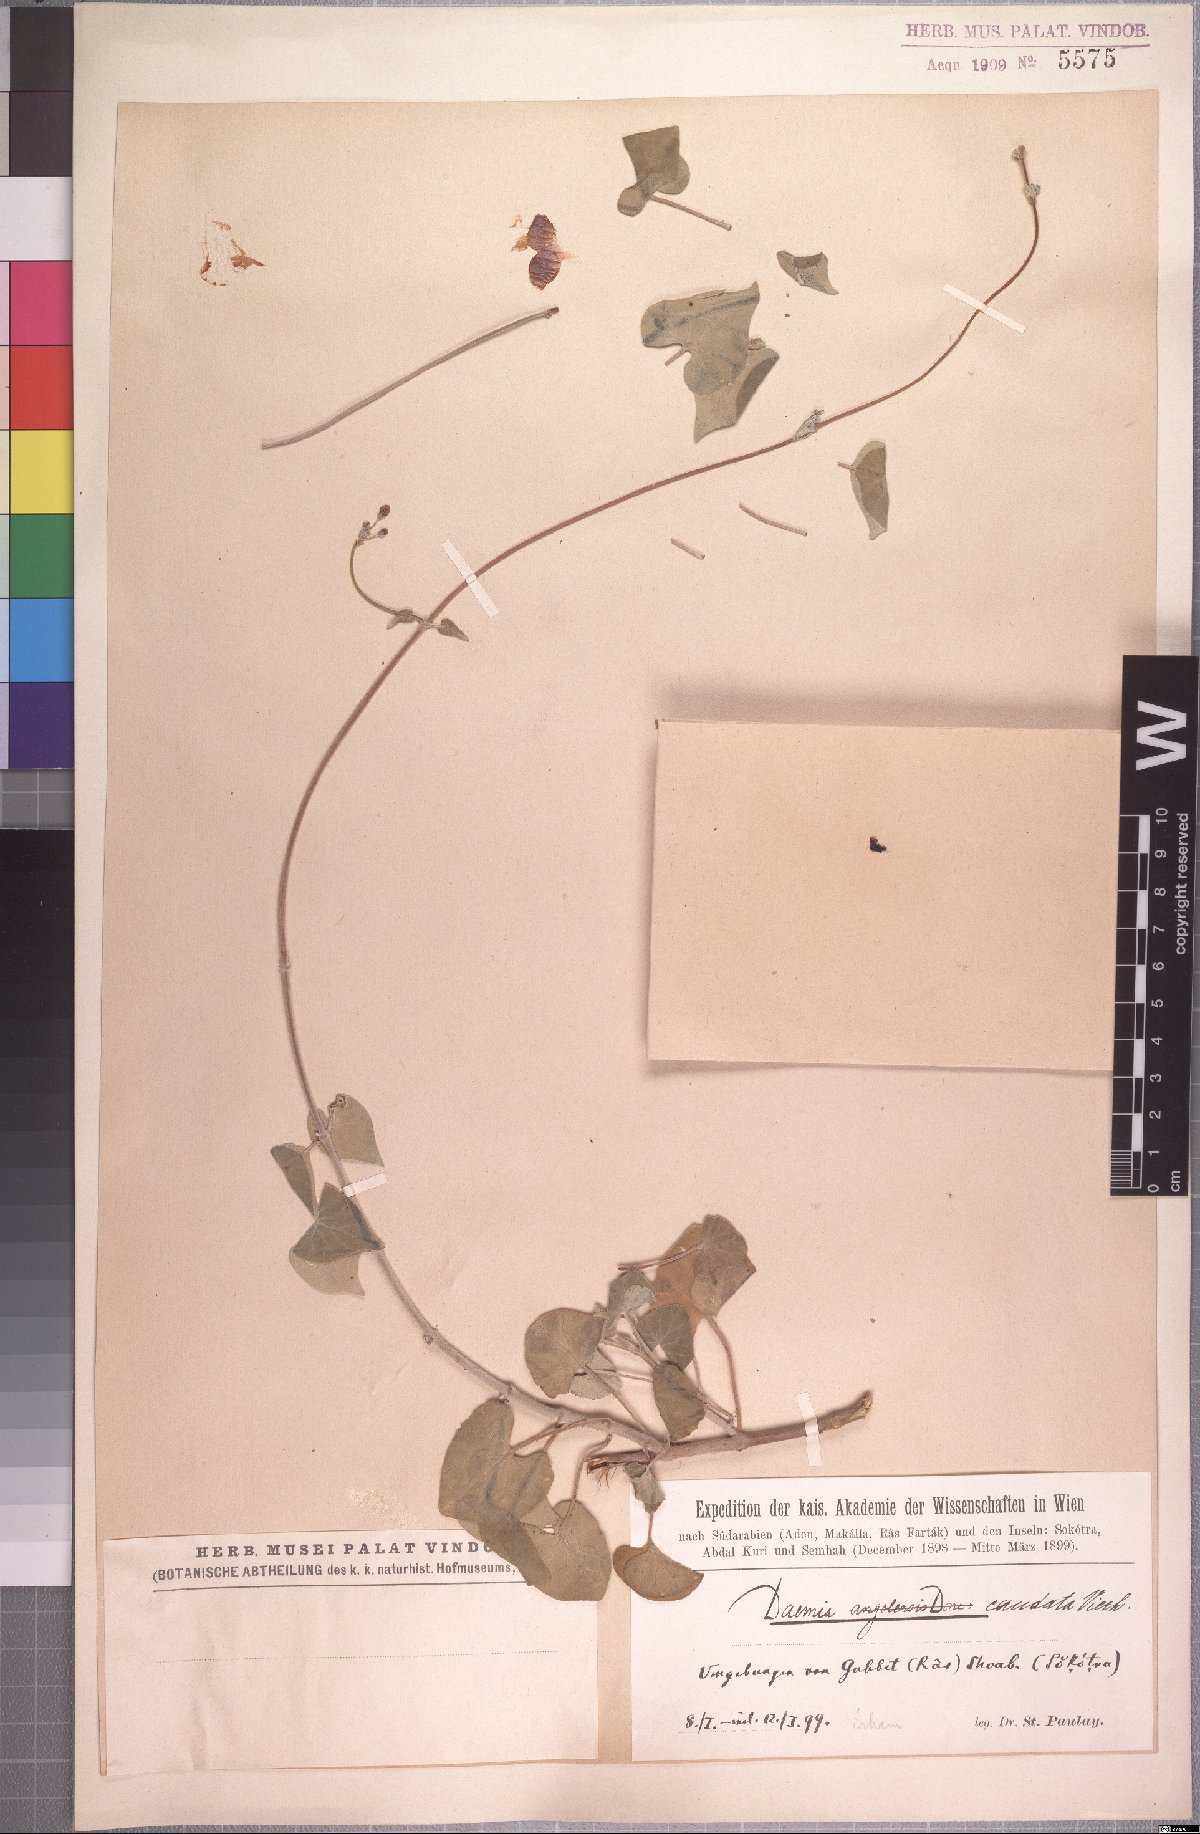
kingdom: Plantae
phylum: Tracheophyta
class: Magnoliopsida
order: Gentianales
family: Apocynaceae
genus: Pergularia
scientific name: Pergularia daemia
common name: Trellis-vine
